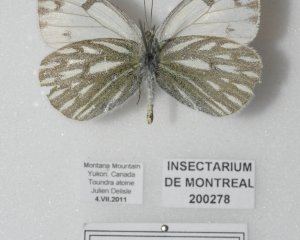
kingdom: Animalia
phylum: Arthropoda
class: Insecta
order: Lepidoptera
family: Pieridae
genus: Pontia
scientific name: Pontia occidentalis
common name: Western White
